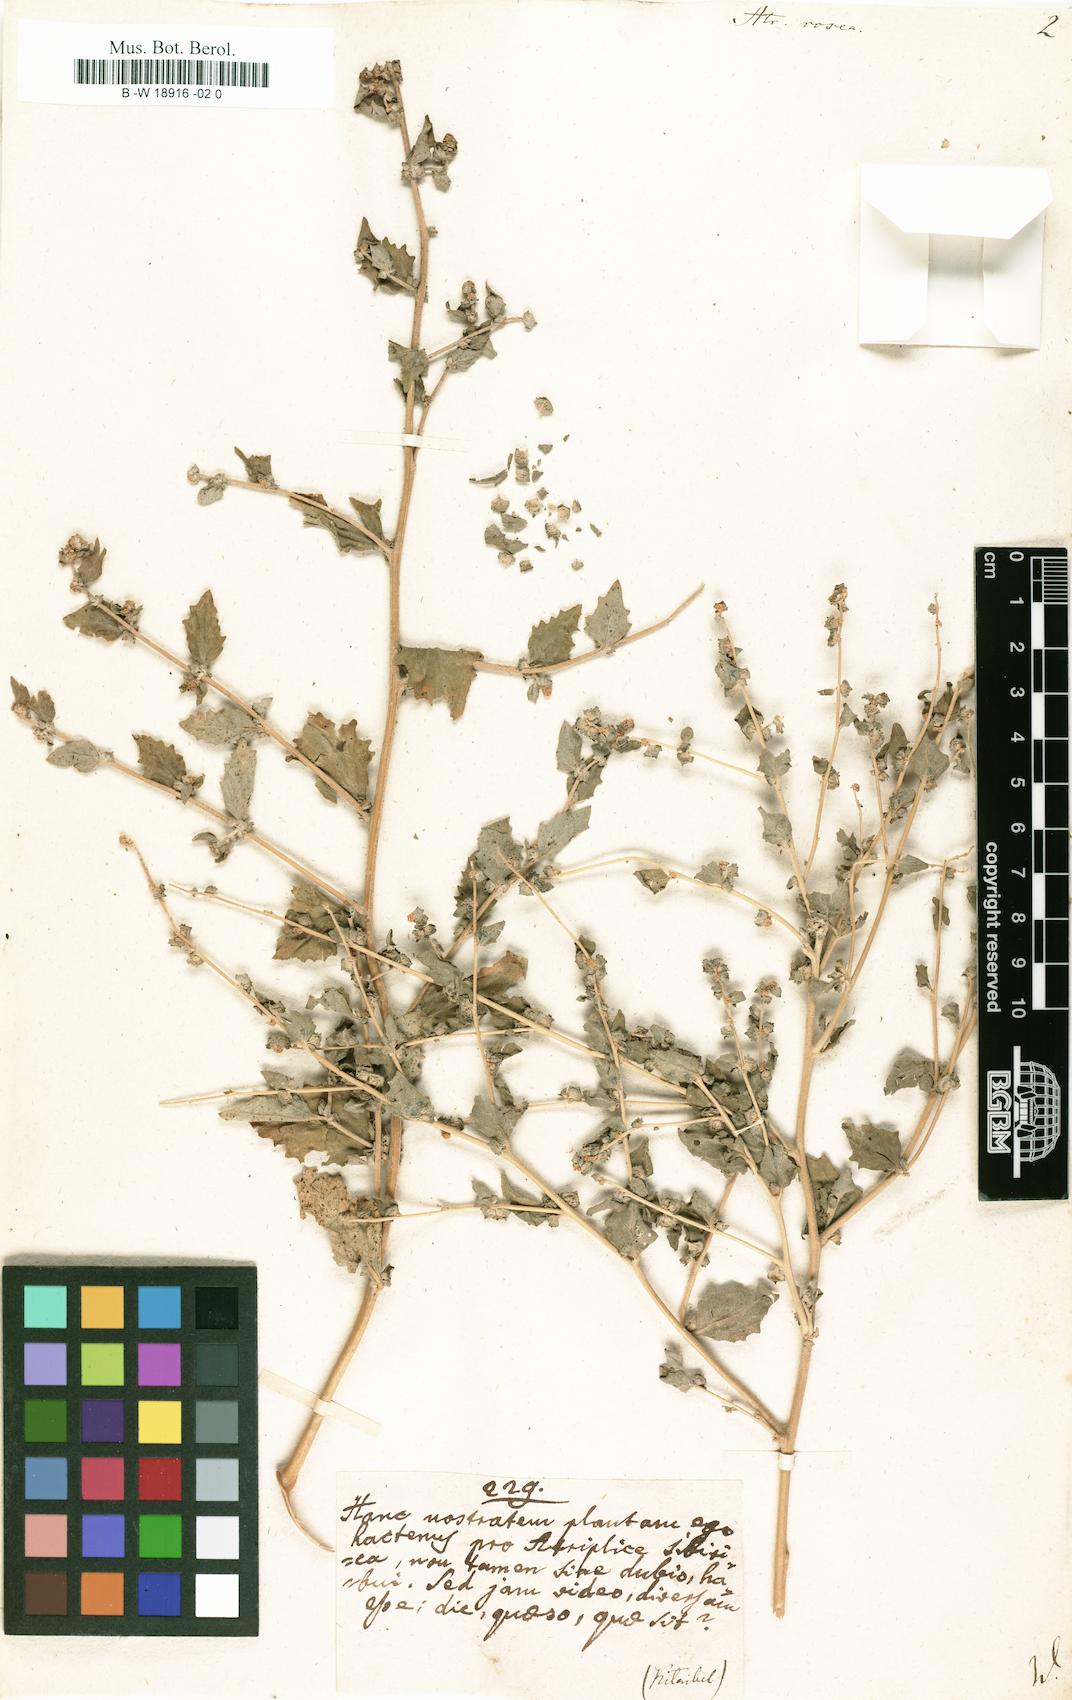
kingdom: Plantae
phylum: Tracheophyta
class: Magnoliopsida
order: Caryophyllales
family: Amaranthaceae
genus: Atriplex
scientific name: Atriplex rosea
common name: Tumbling saltweed
